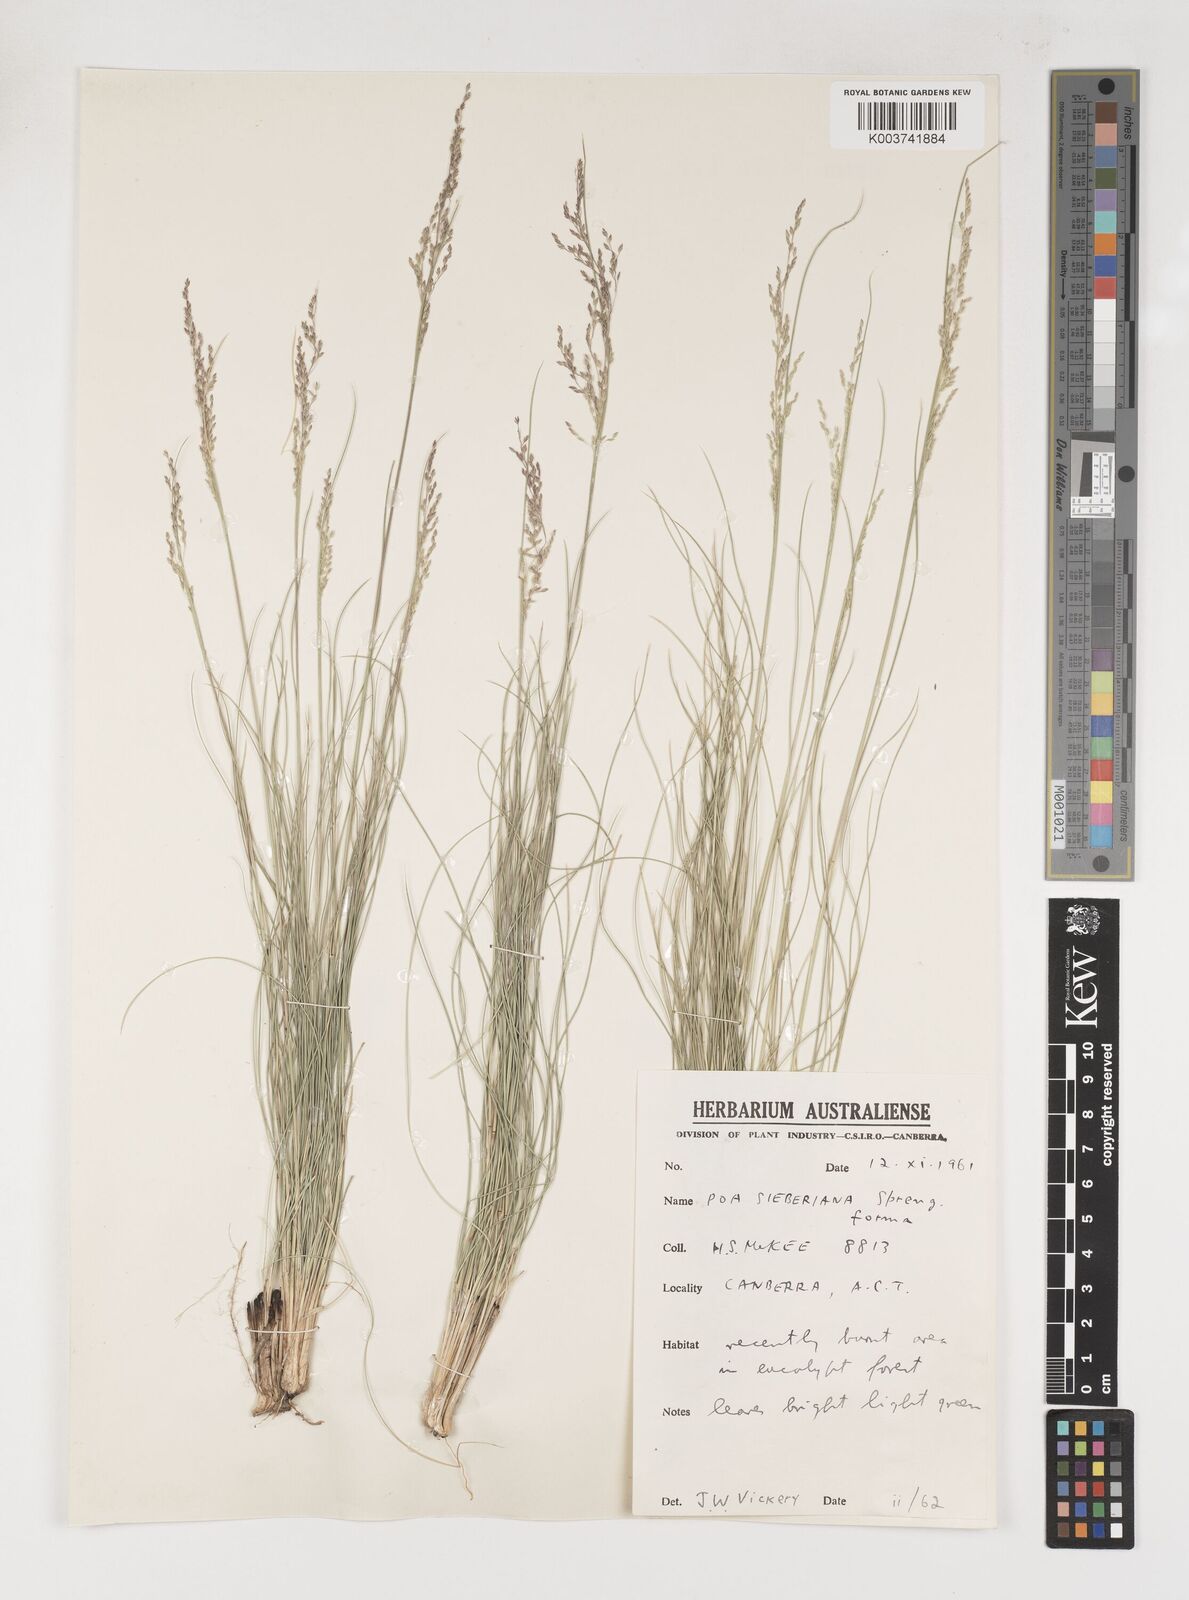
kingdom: Plantae
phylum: Tracheophyta
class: Liliopsida
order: Poales
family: Poaceae
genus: Poa
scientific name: Poa sieberiana
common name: Tussock poa
